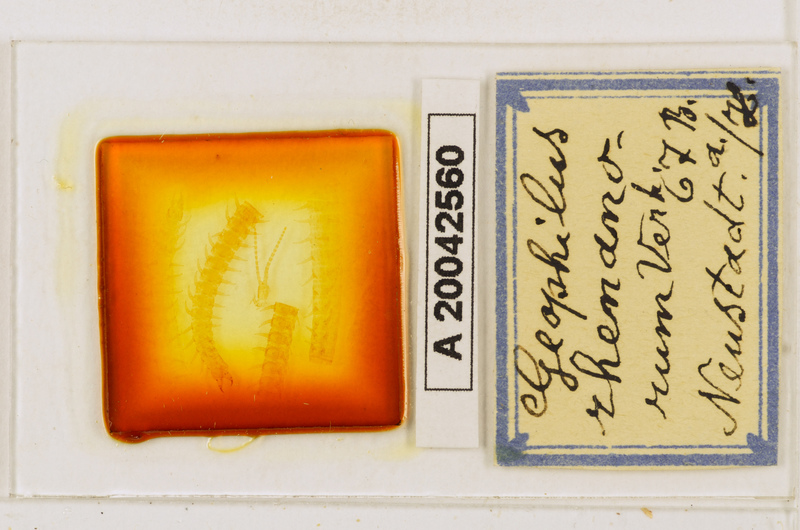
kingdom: Animalia
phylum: Arthropoda
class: Chilopoda
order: Geophilomorpha
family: Geophilidae
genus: Geophilus
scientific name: Geophilus electricus
